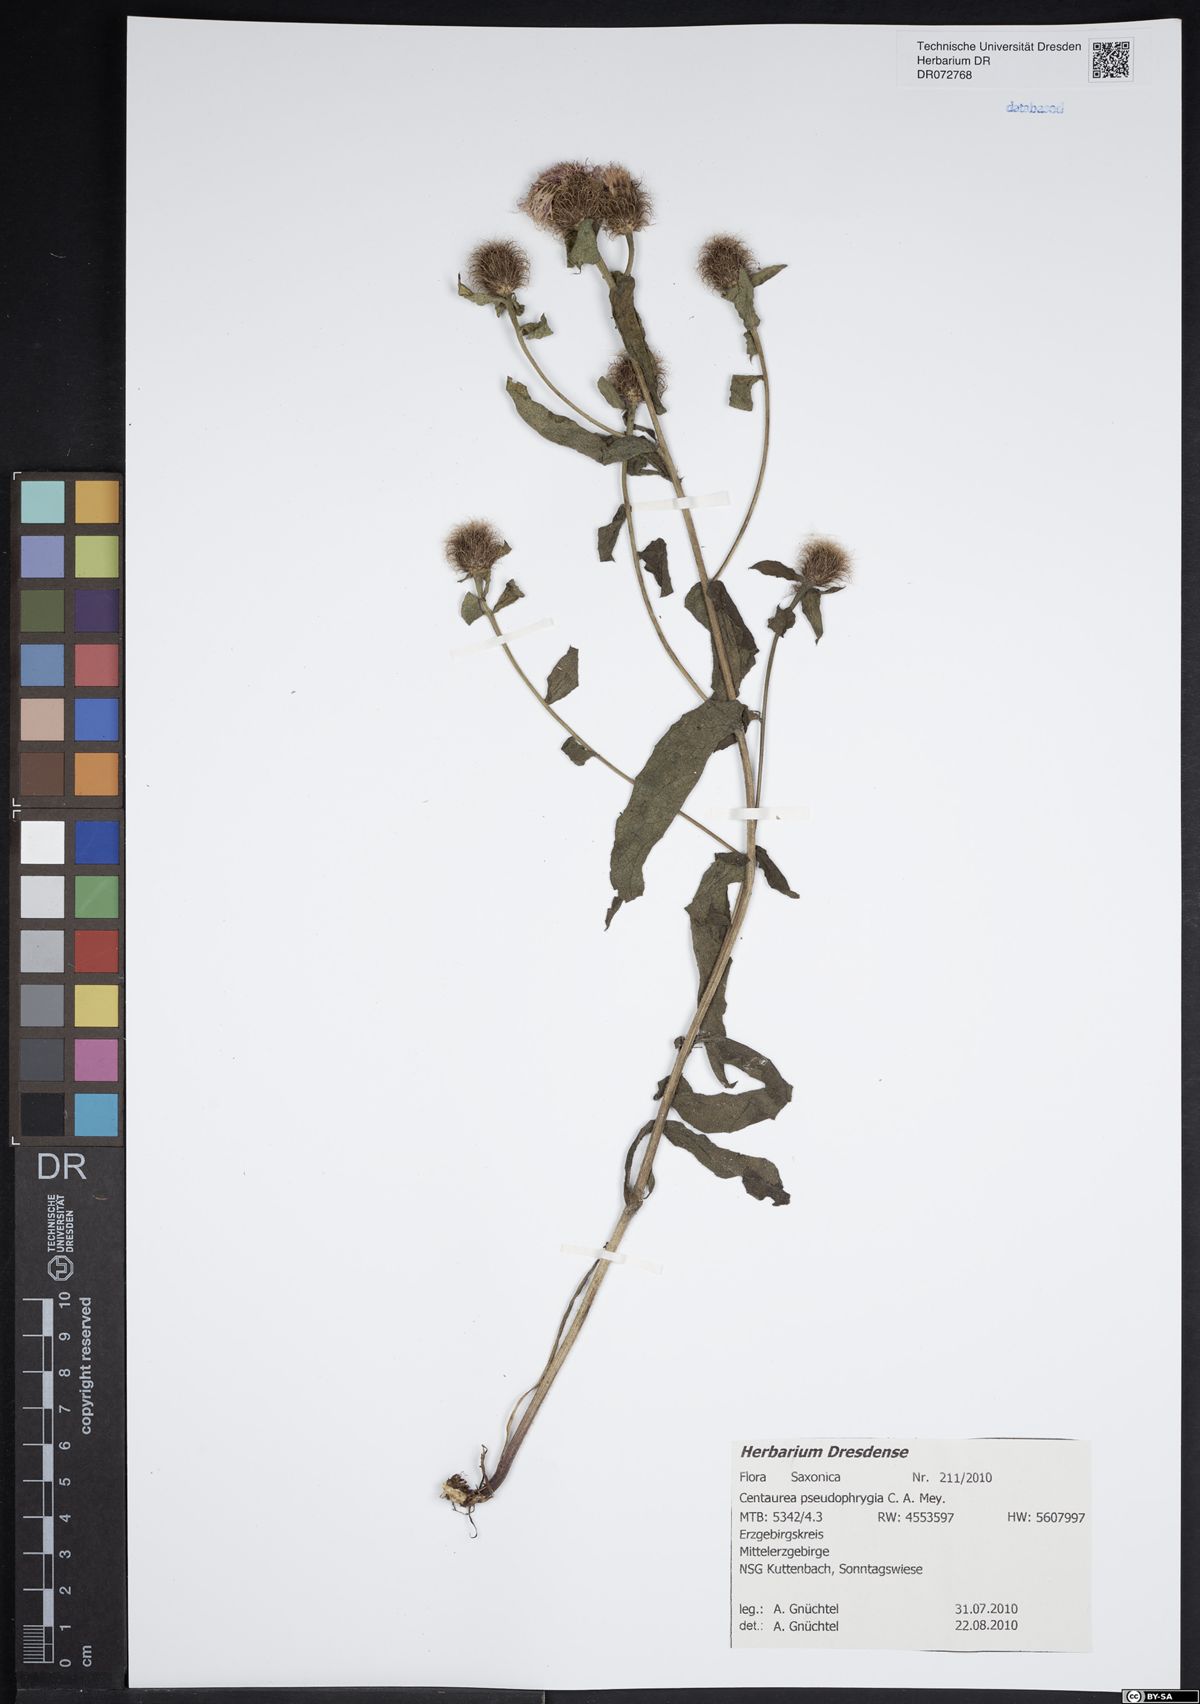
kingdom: Plantae
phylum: Tracheophyta
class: Magnoliopsida
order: Asterales
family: Asteraceae
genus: Centaurea
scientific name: Centaurea pseudophrygia
